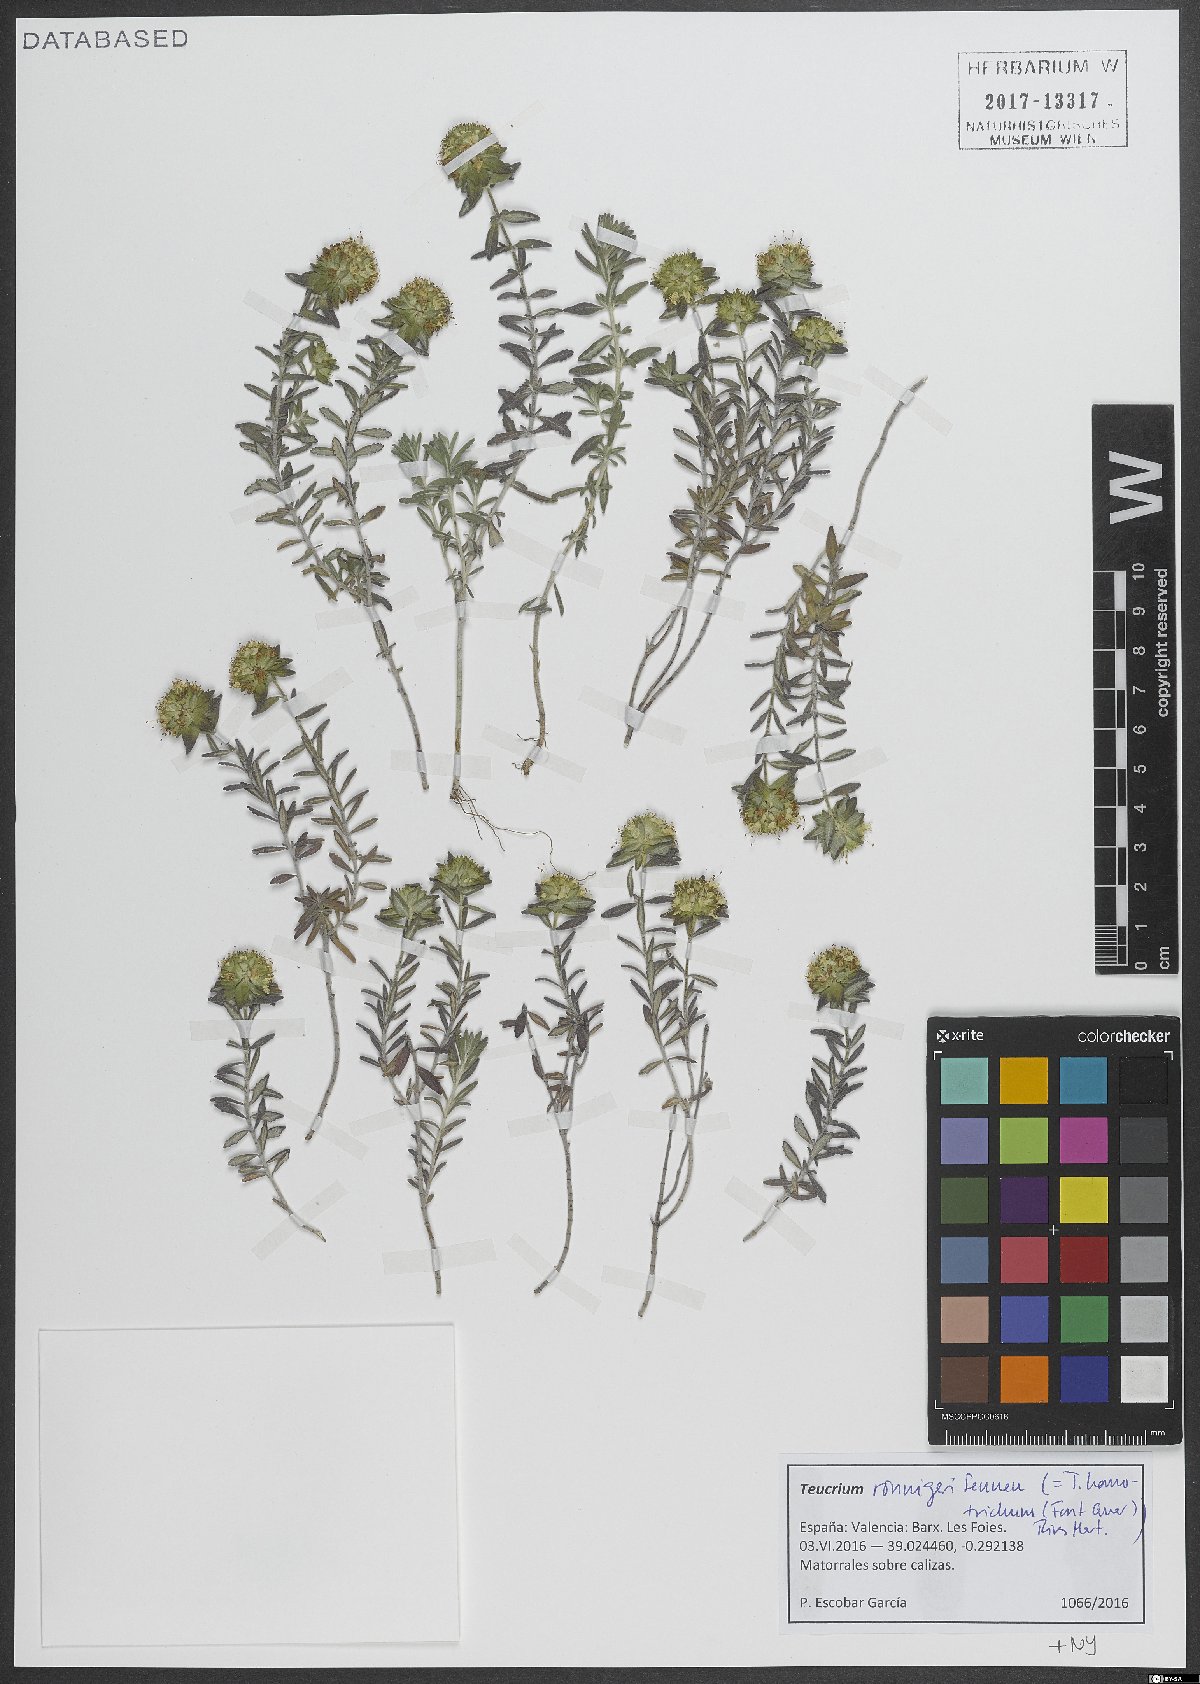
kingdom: Plantae
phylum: Tracheophyta
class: Magnoliopsida
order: Lamiales
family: Lamiaceae
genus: Teucrium
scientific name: Teucrium ronnigeri
